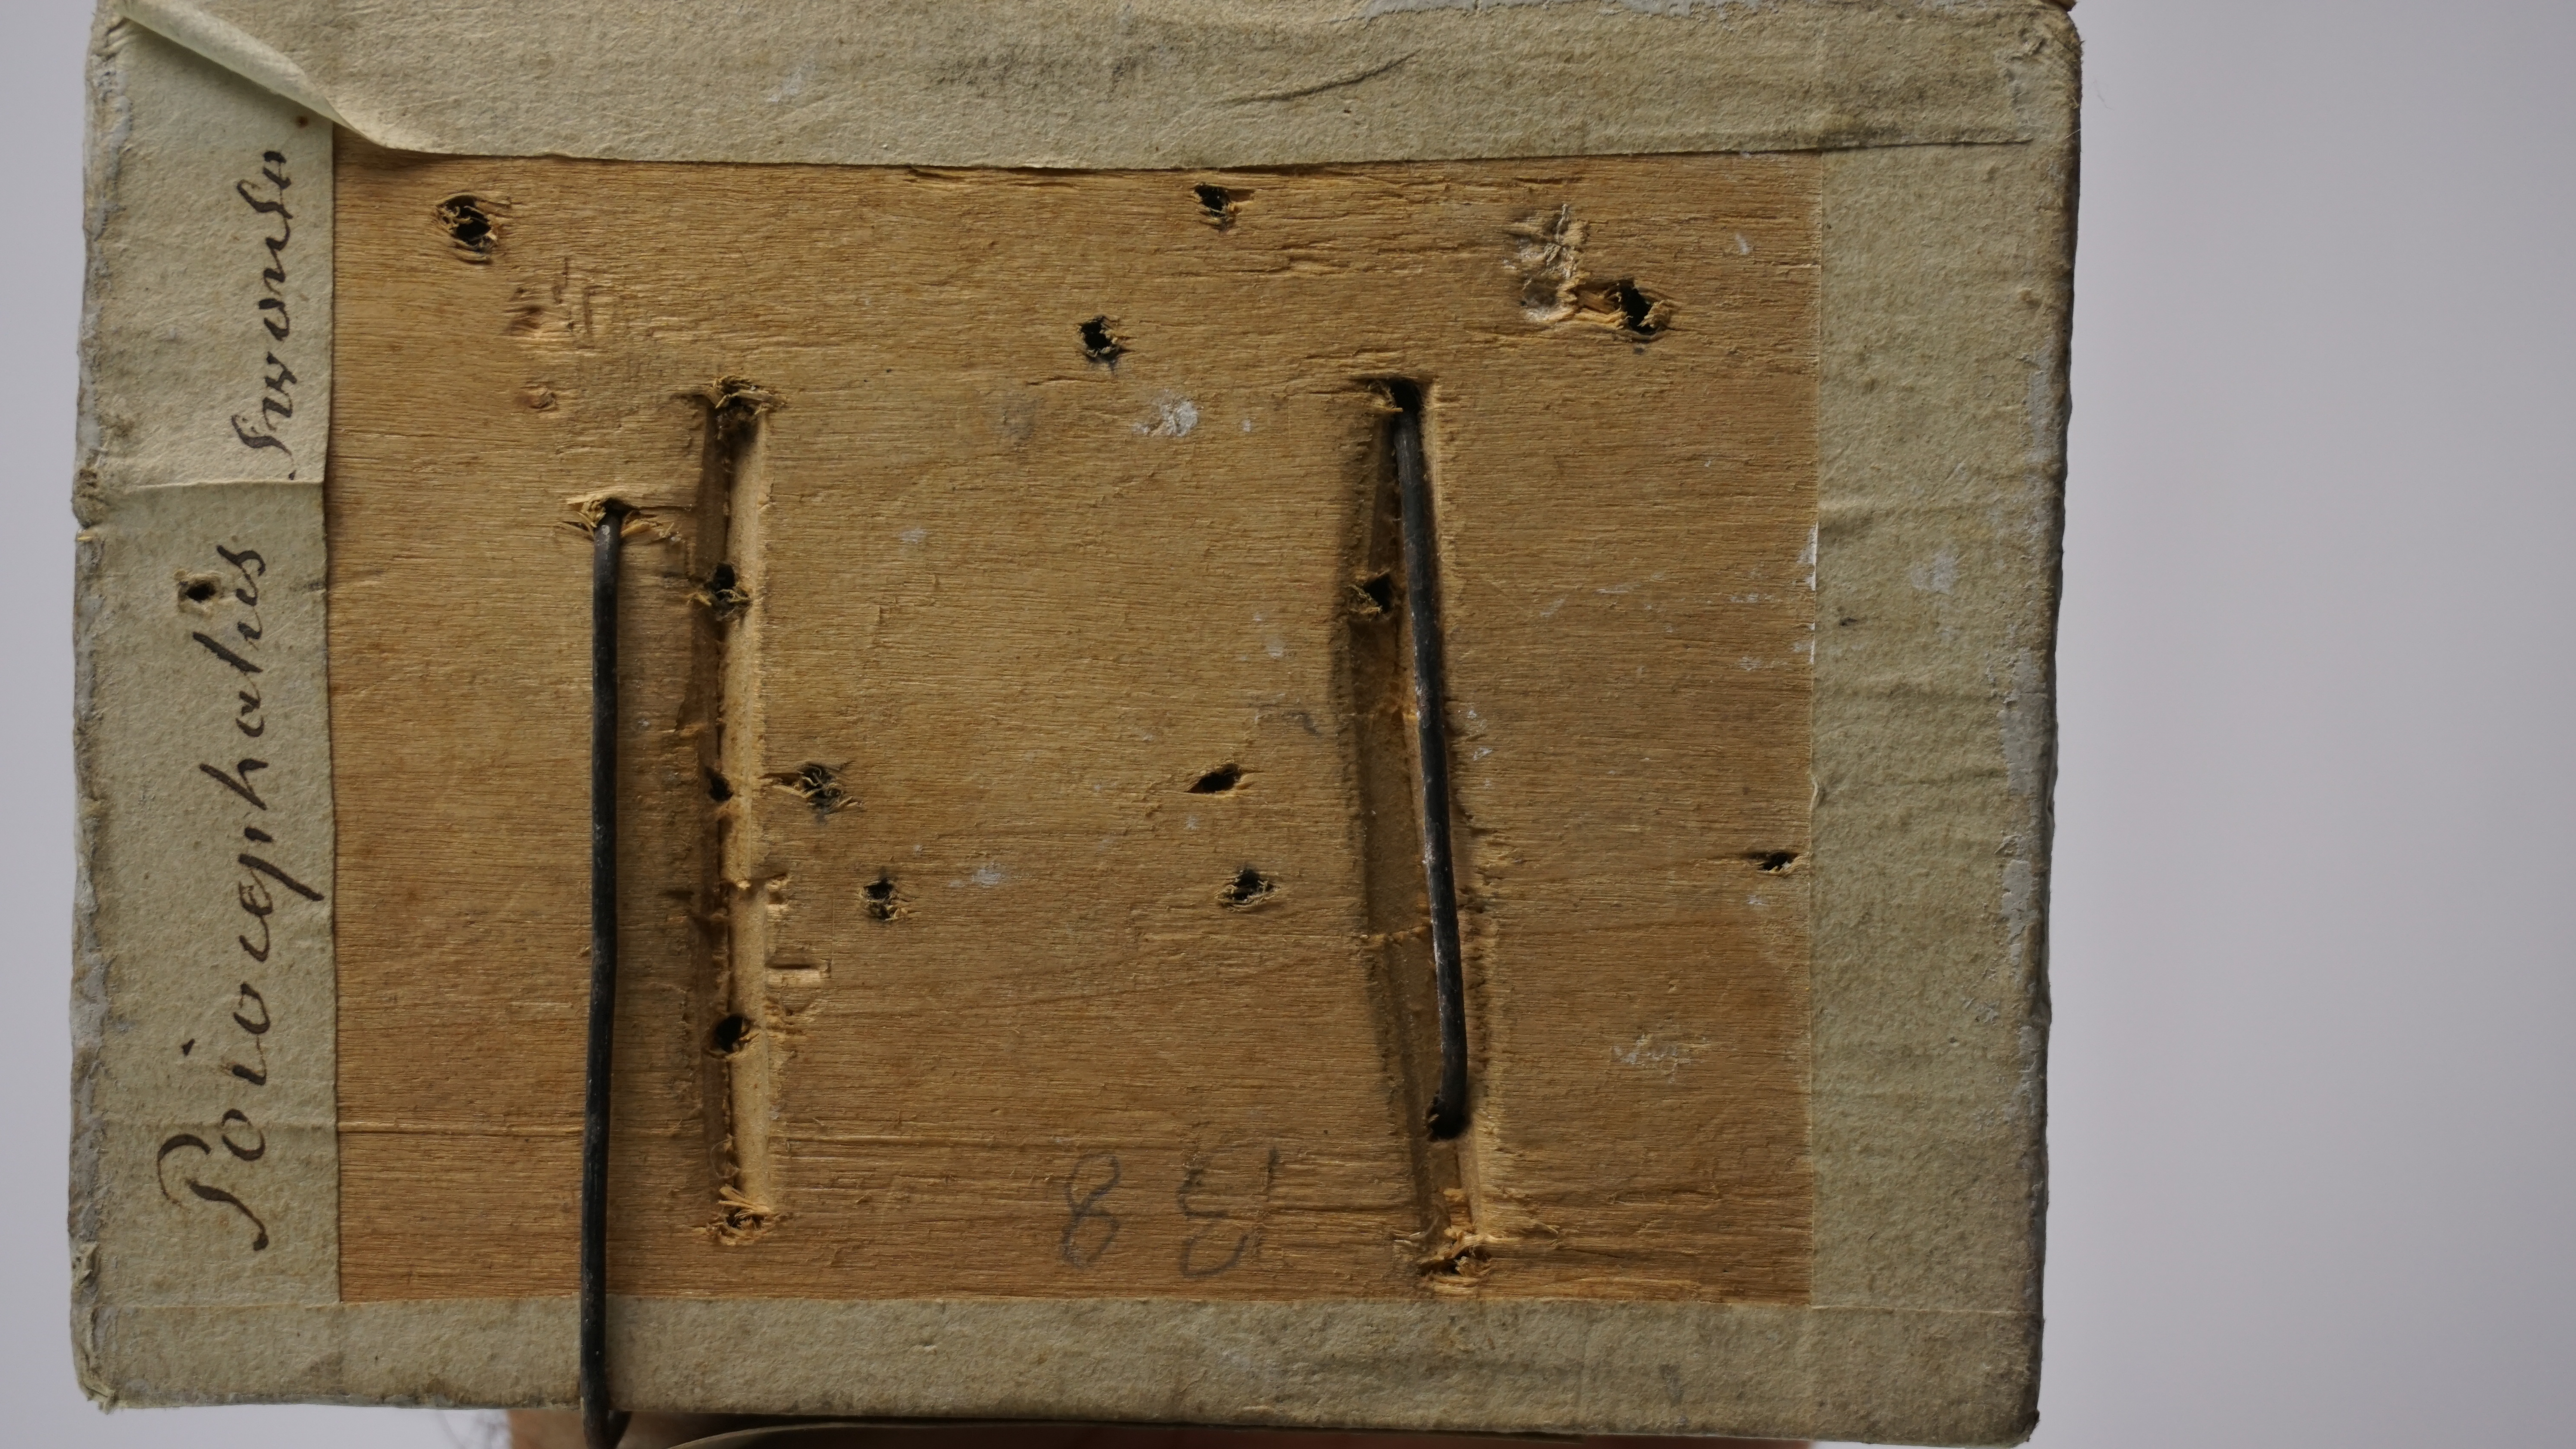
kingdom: Animalia
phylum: Chordata
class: Aves
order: Charadriiformes
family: Laridae
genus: Chroicocephalus
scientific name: Chroicocephalus novaehollandiae
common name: Silver gull
